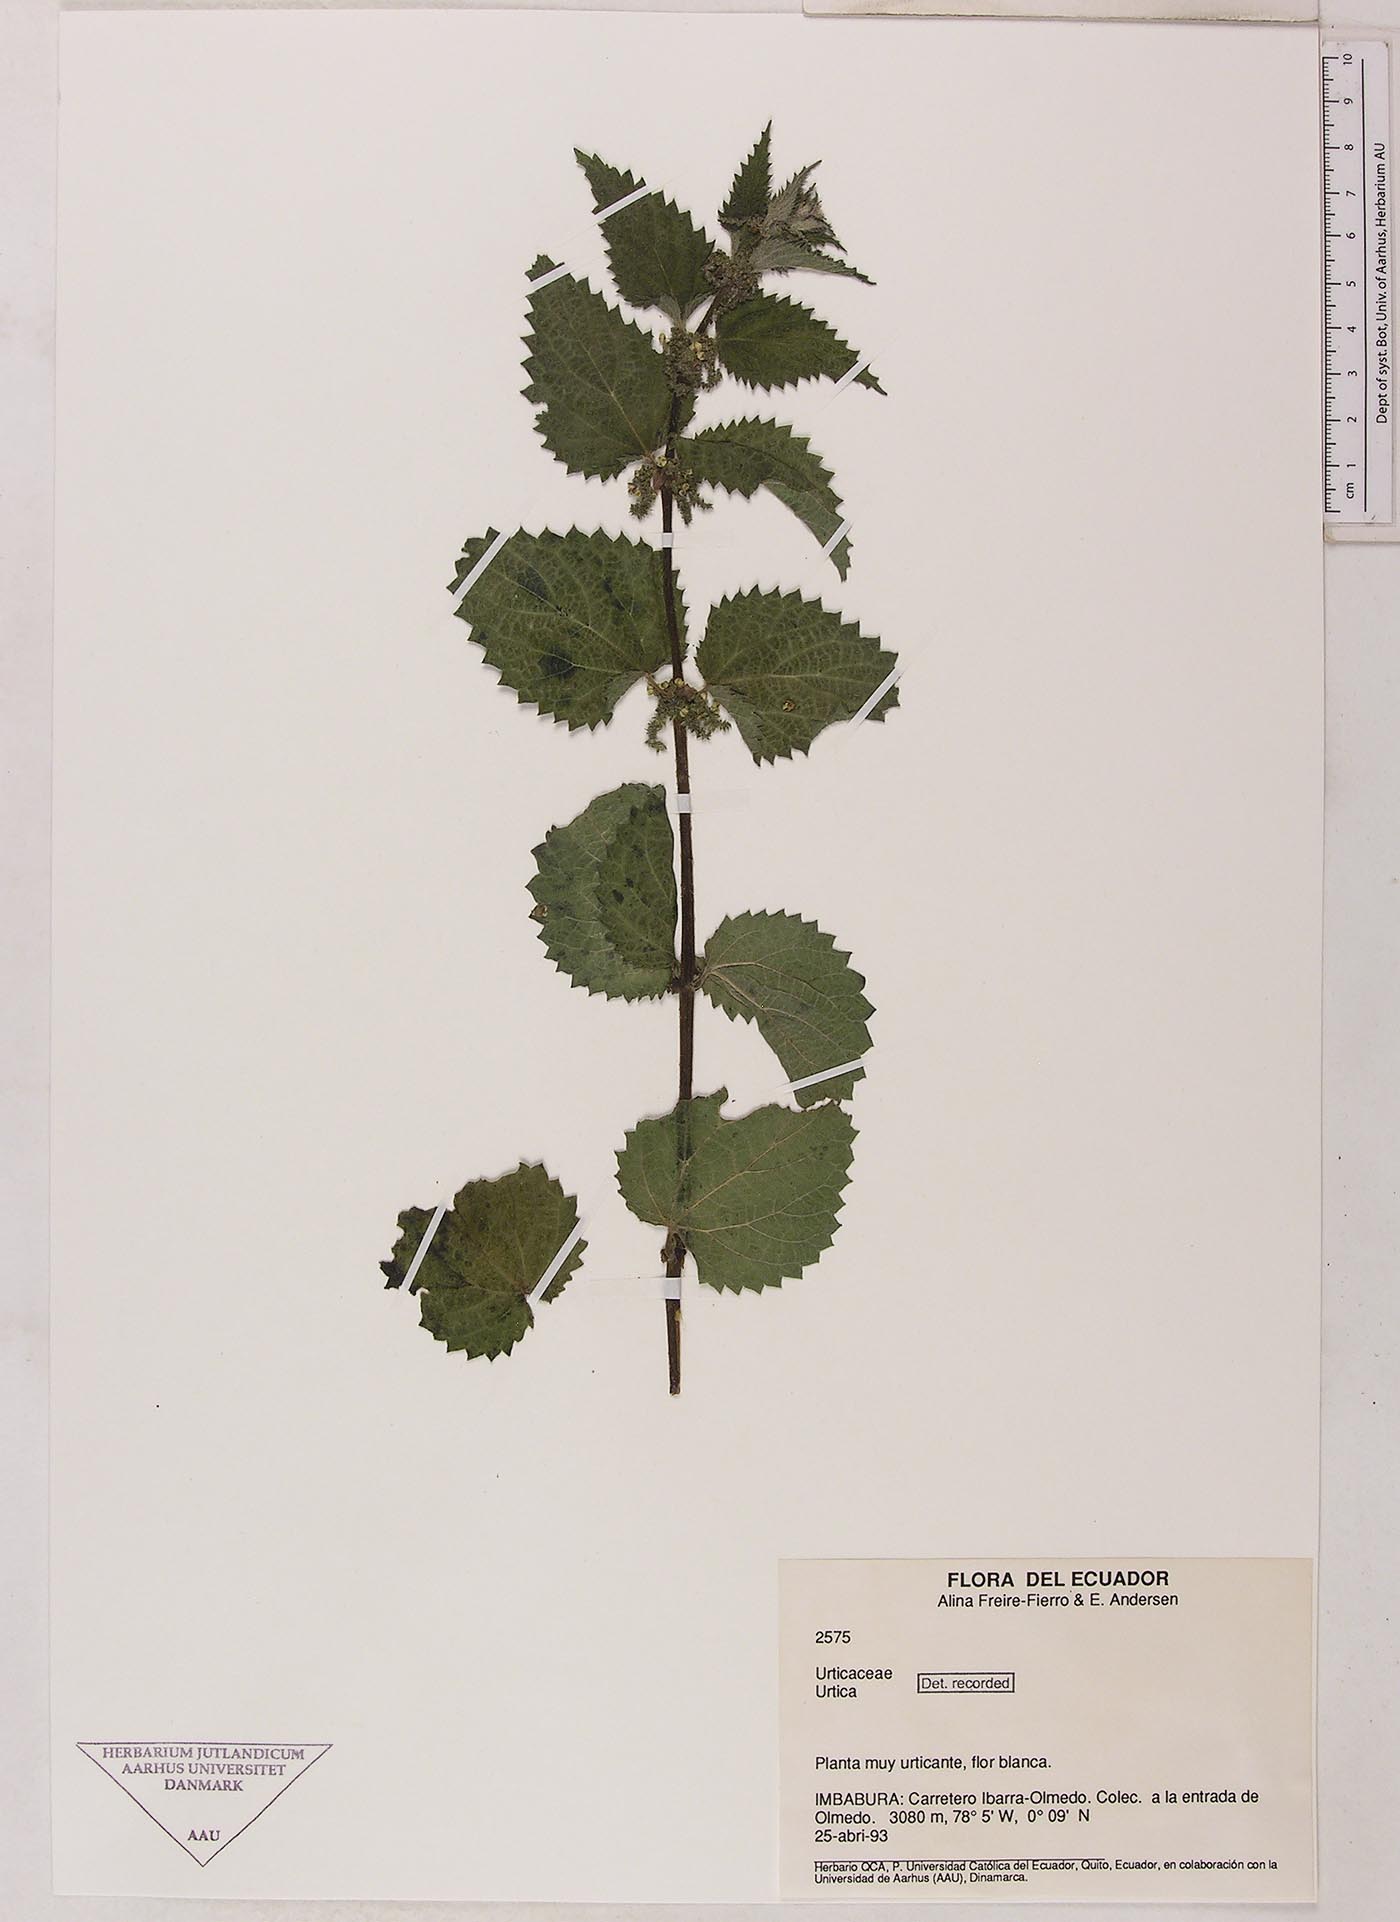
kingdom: Plantae
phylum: Tracheophyta
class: Magnoliopsida
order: Rosales
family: Urticaceae
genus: Urtica
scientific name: Urtica leptophylla
